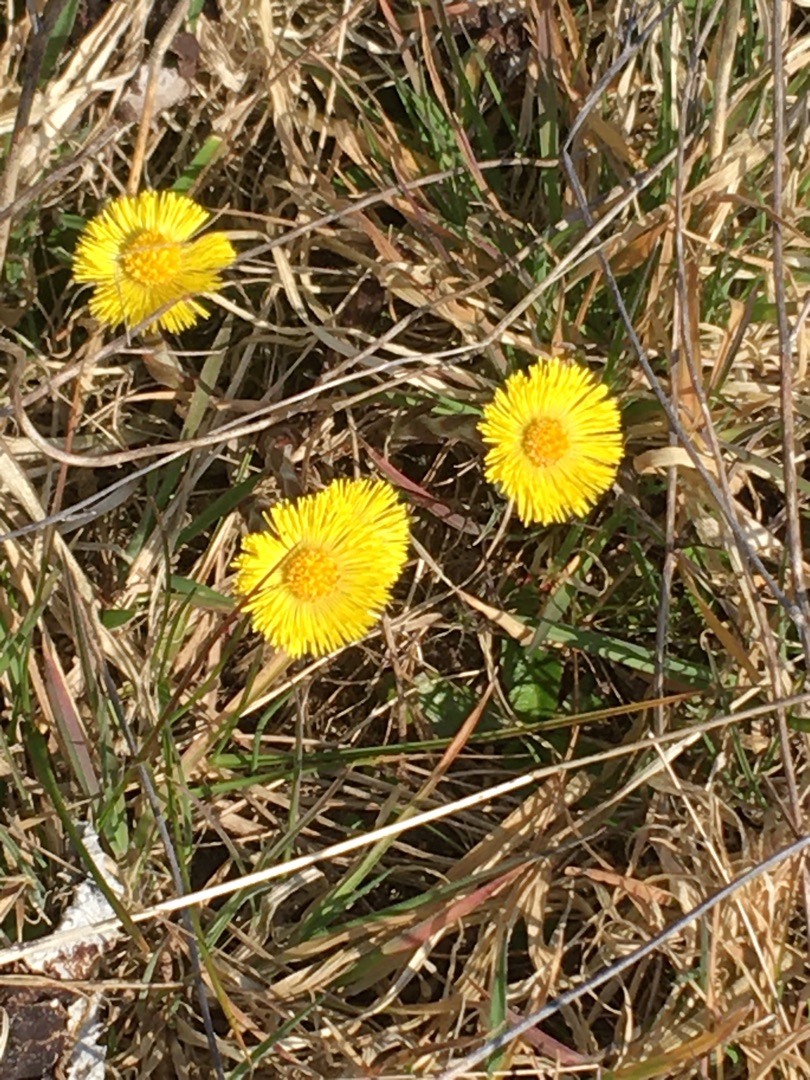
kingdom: Plantae
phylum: Tracheophyta
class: Magnoliopsida
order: Asterales
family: Asteraceae
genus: Tussilago
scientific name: Tussilago farfara
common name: Følfod
